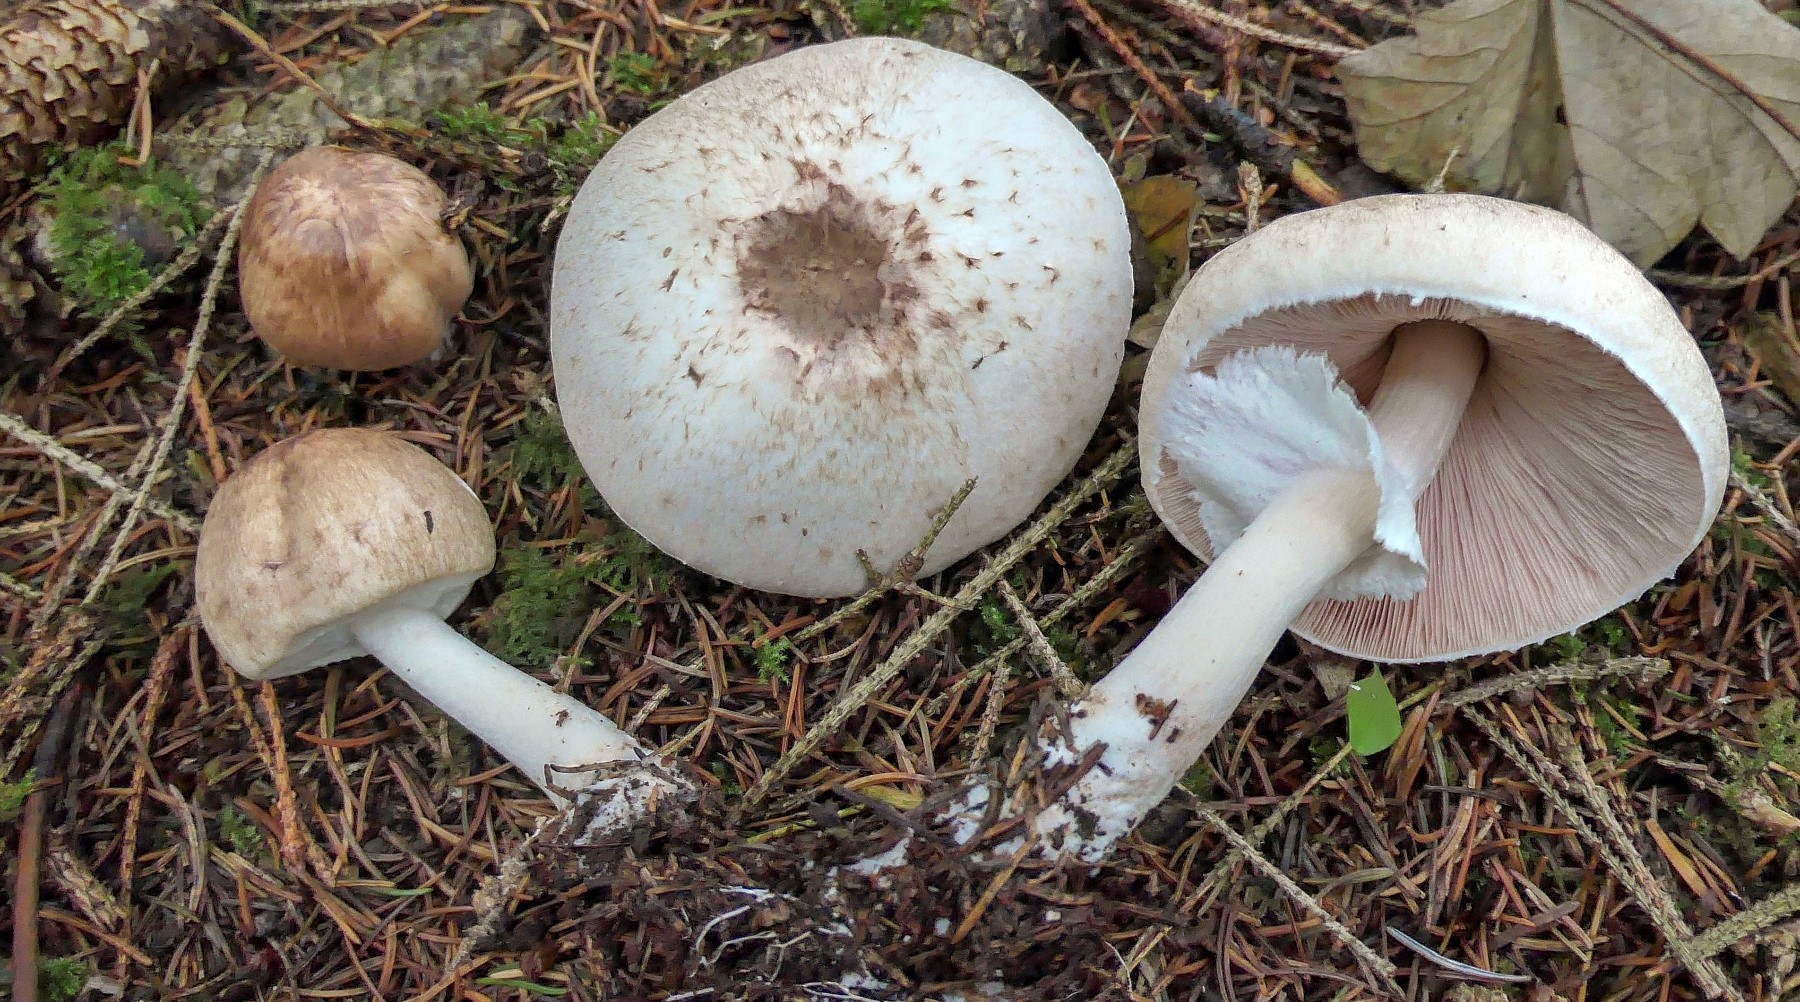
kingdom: Fungi
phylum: Basidiomycota
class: Agaricomycetes
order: Agaricales
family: Agaricaceae
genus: Agaricus
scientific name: Agaricus impudicus
